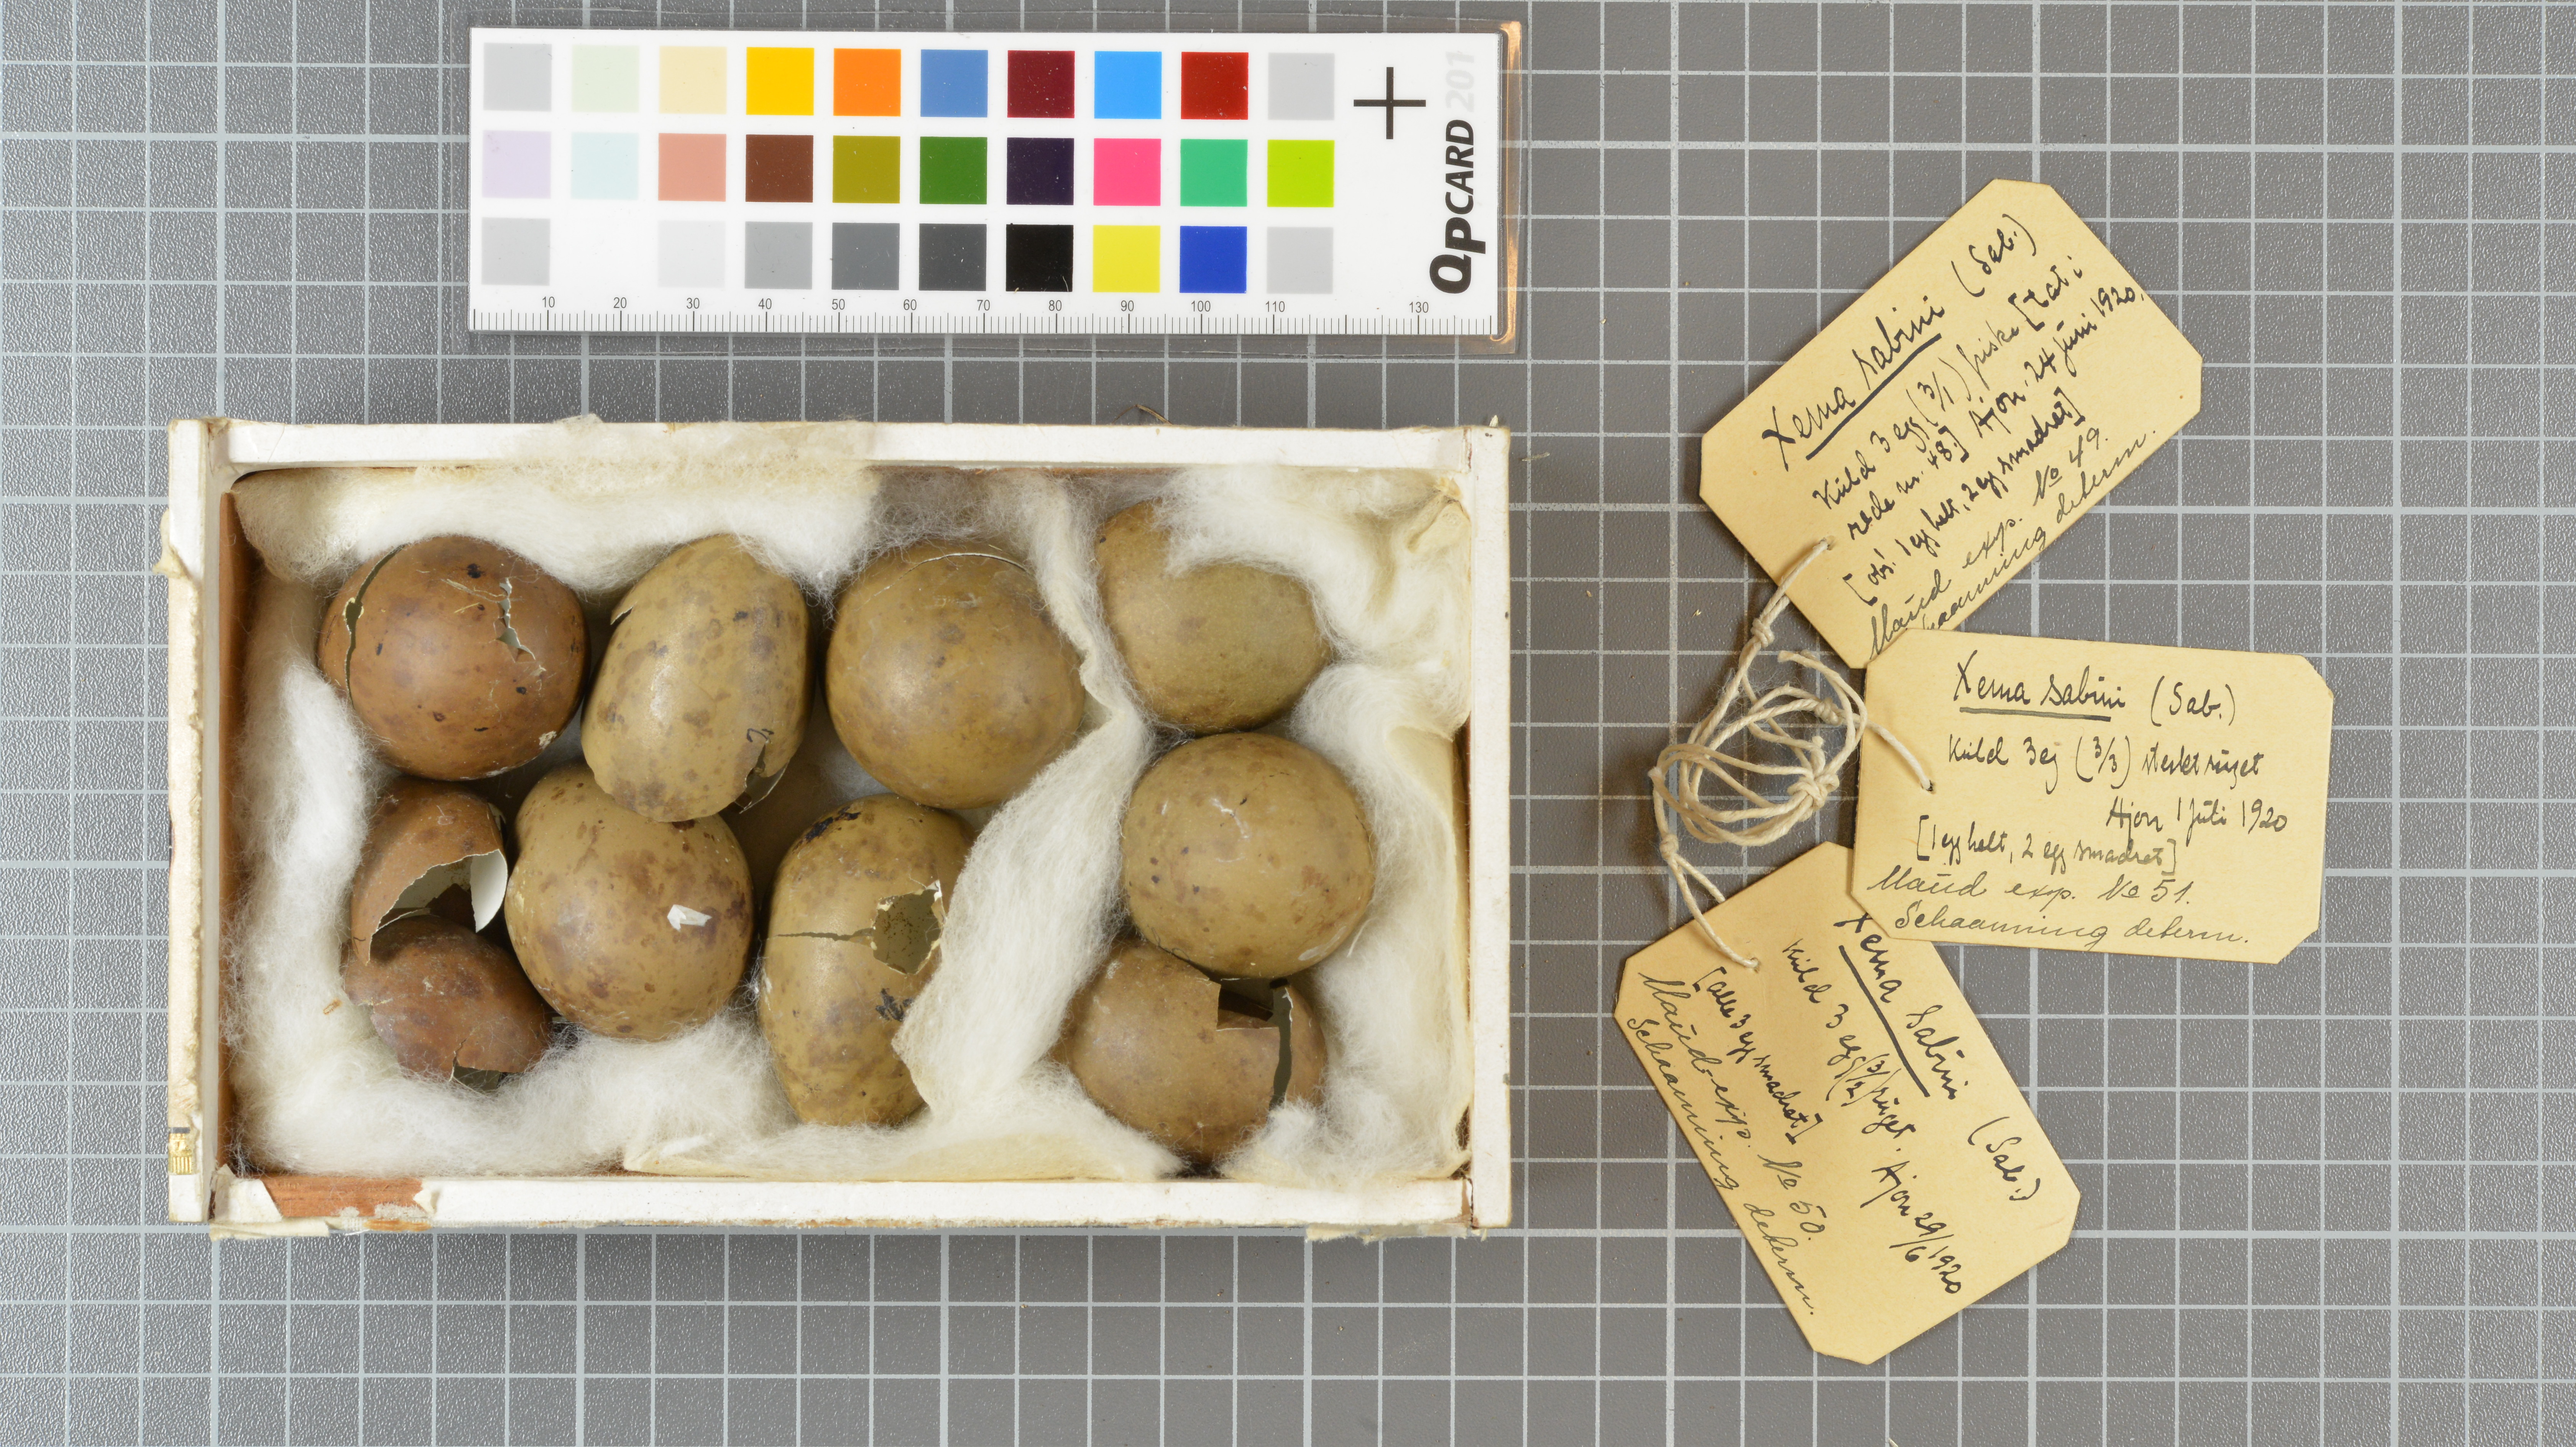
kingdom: Animalia
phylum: Chordata
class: Aves
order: Charadriiformes
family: Laridae
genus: Xema
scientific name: Xema sabini
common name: Sabine's gull
